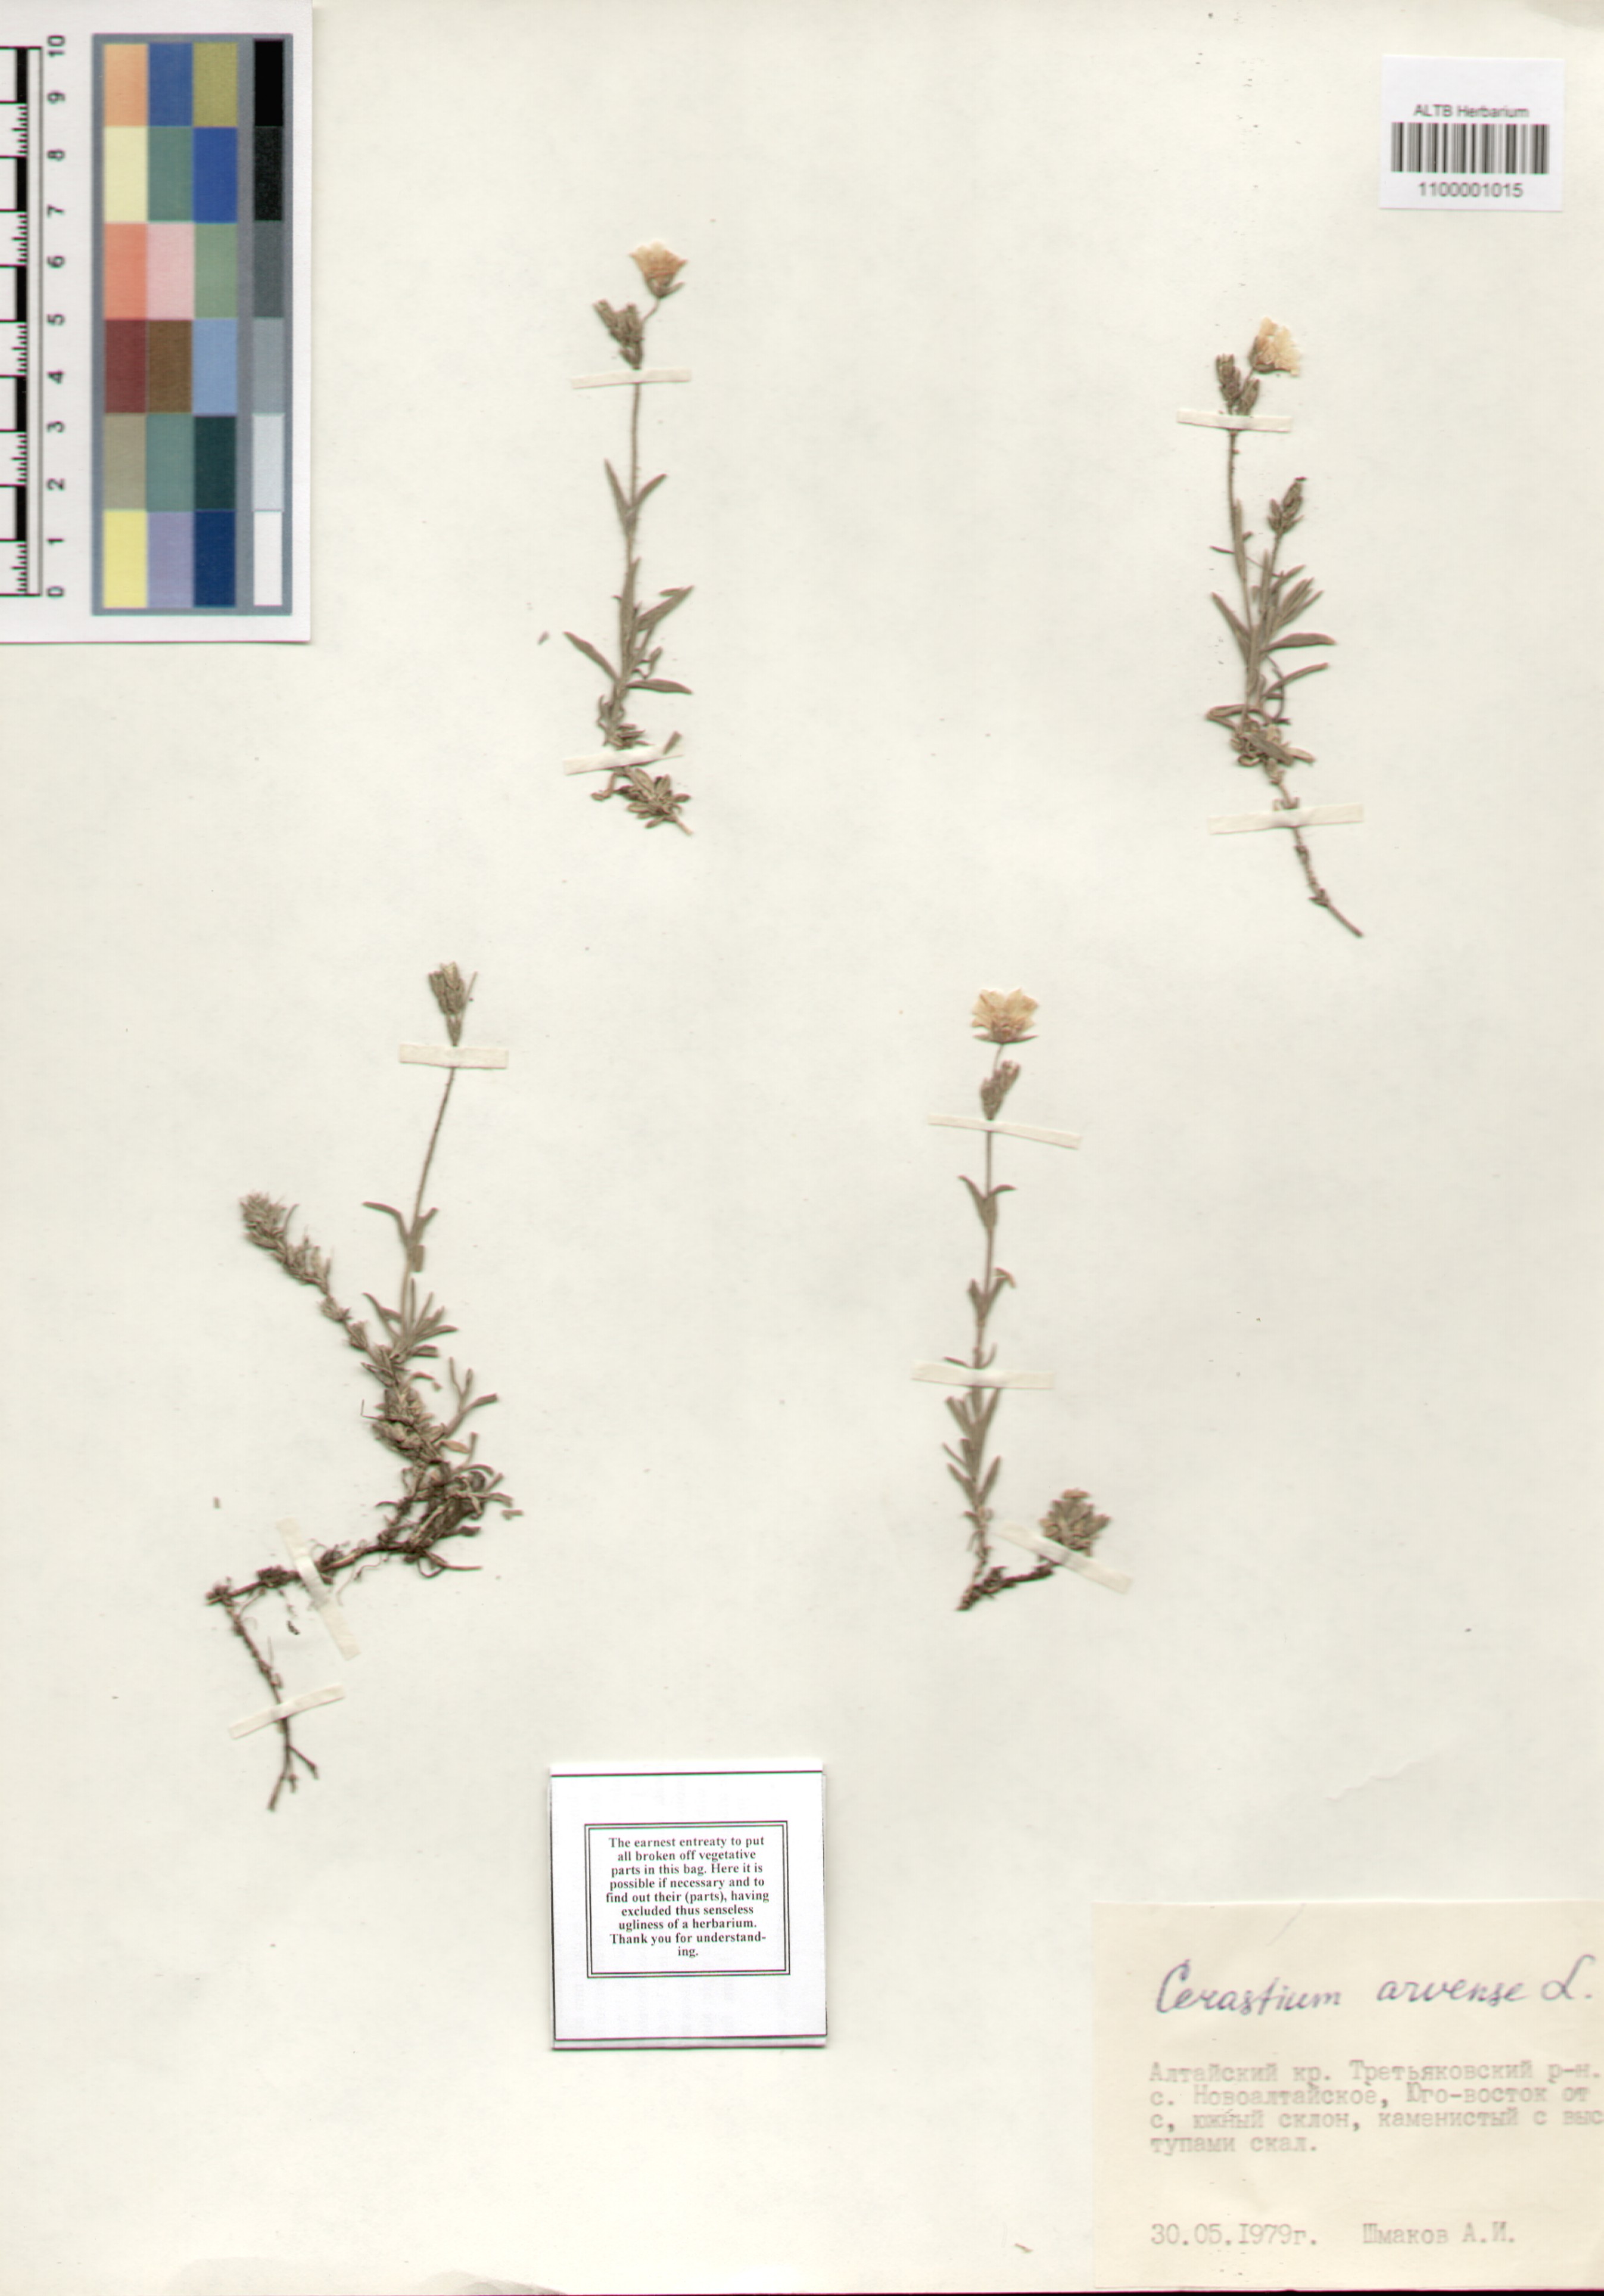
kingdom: Plantae
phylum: Tracheophyta
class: Magnoliopsida
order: Caryophyllales
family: Caryophyllaceae
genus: Cerastium
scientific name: Cerastium arvense
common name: Field mouse-ear
